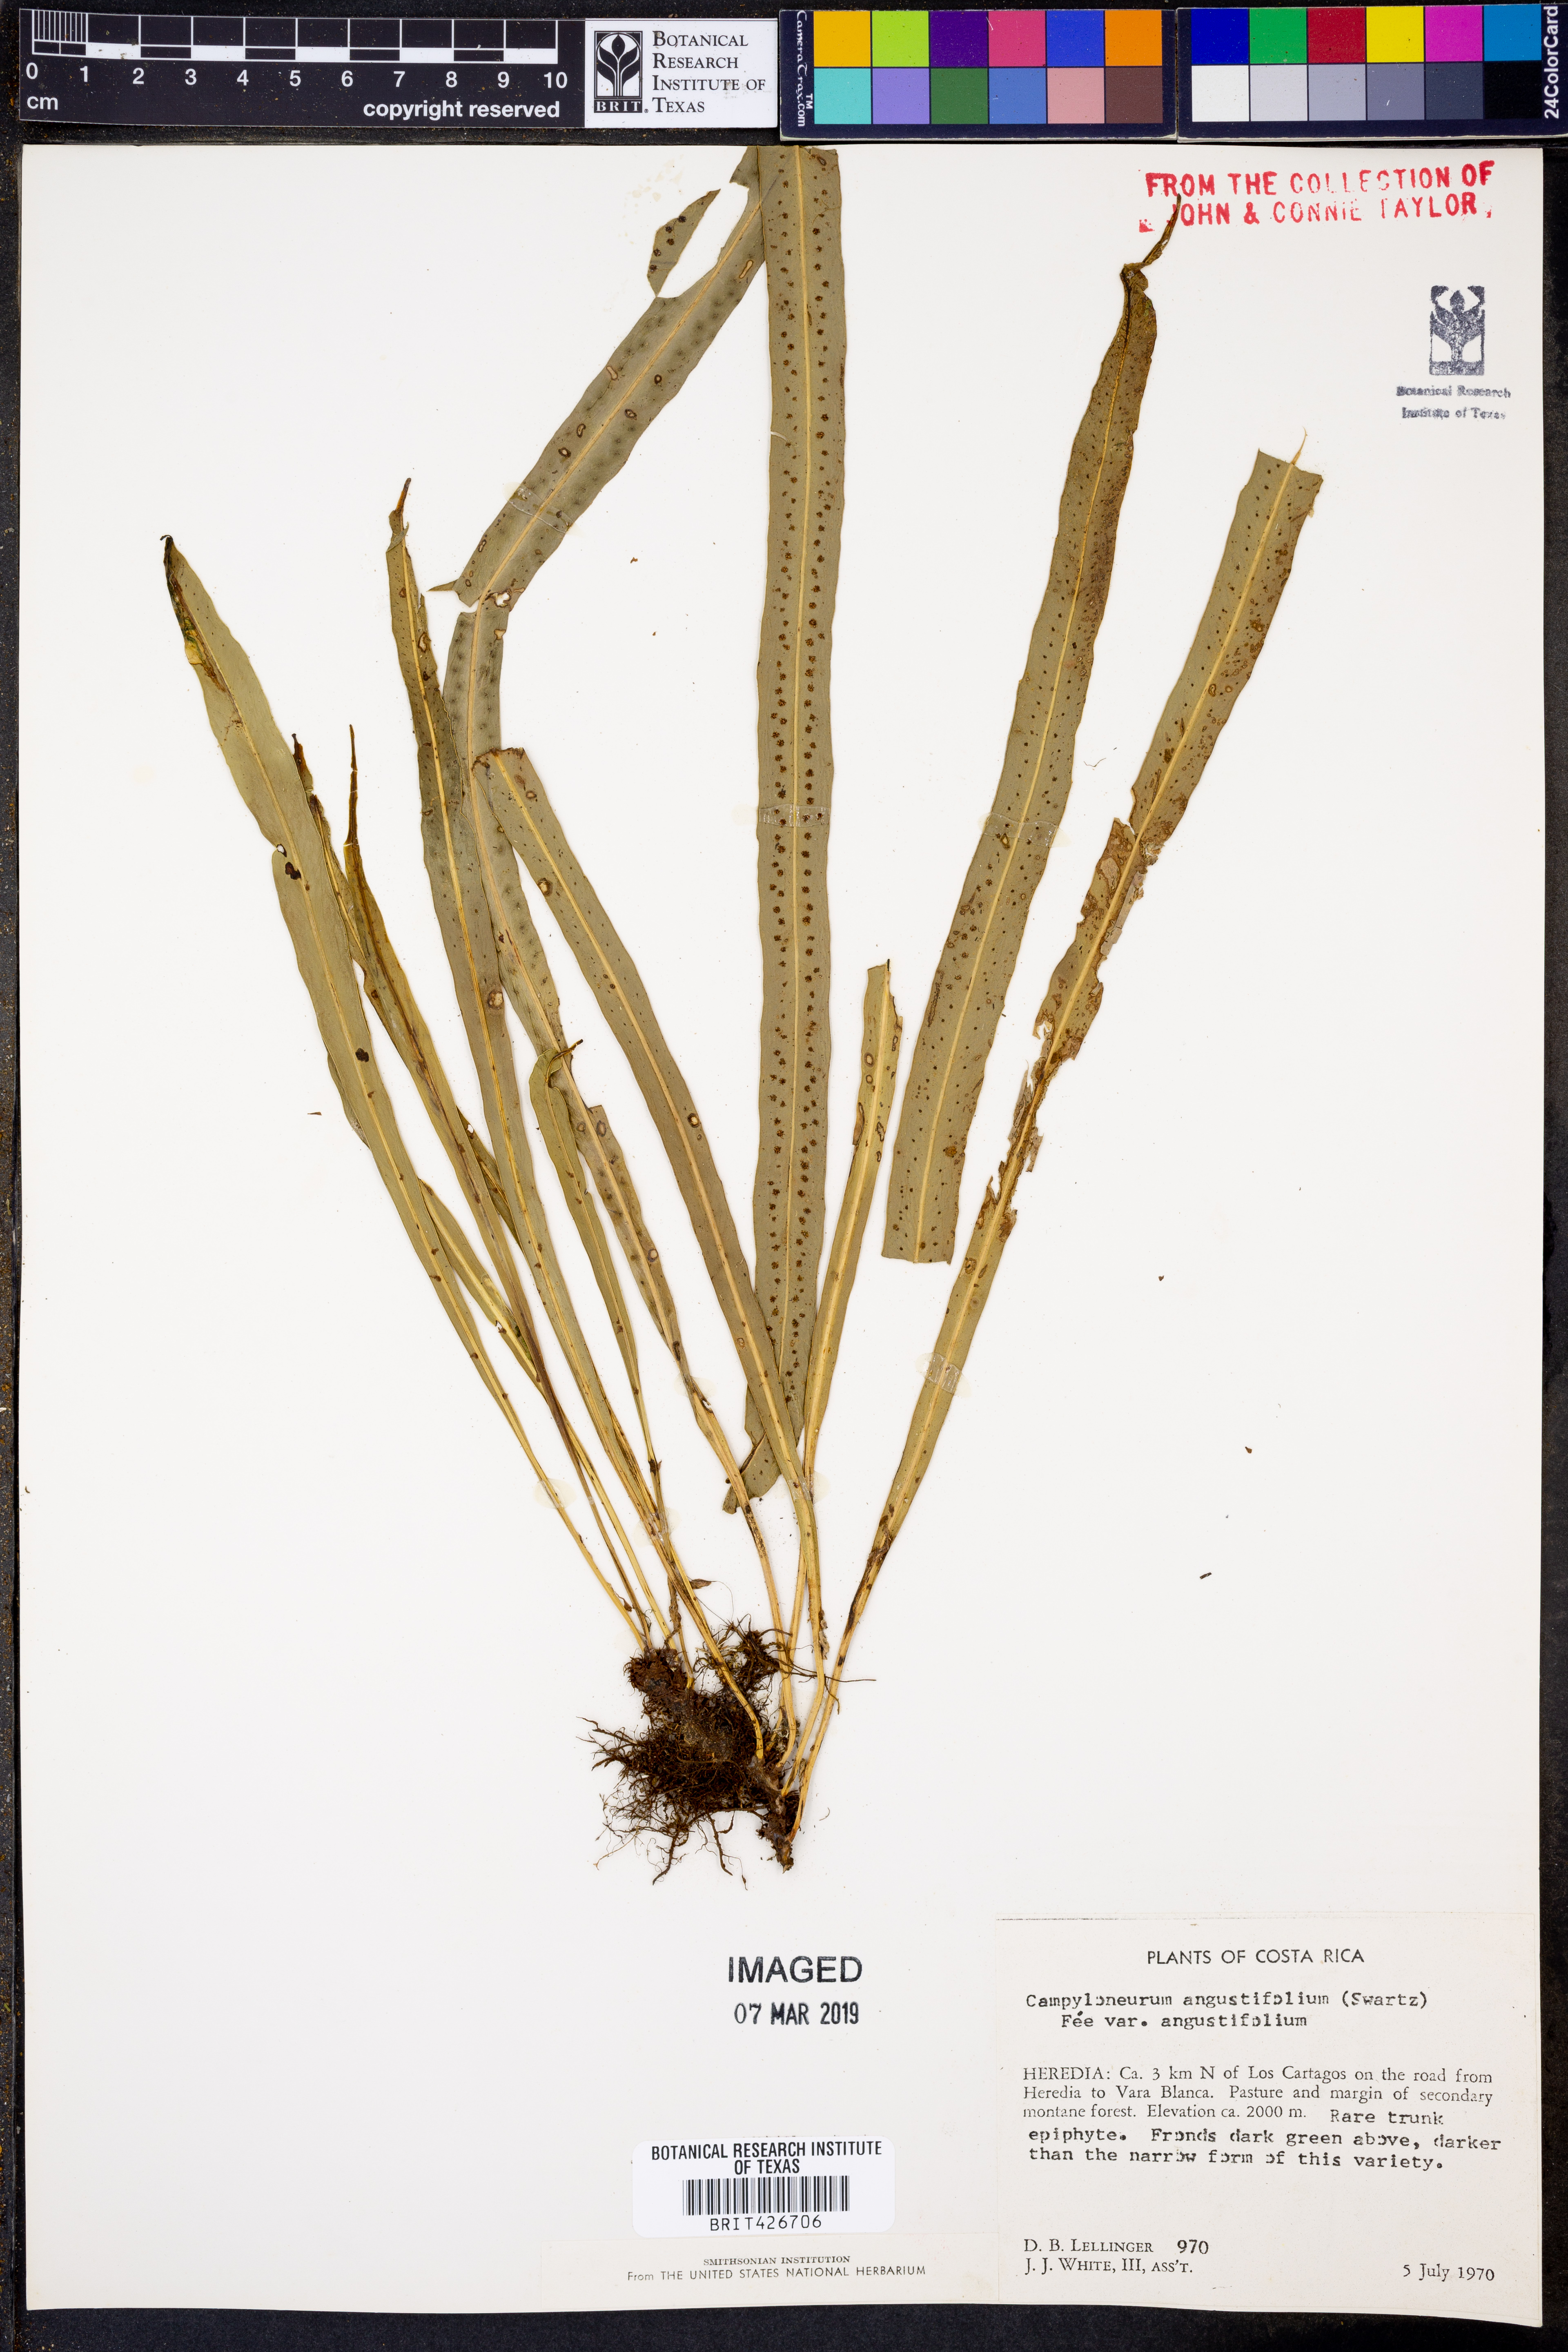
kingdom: Plantae
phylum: Tracheophyta
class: Polypodiopsida
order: Polypodiales
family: Polypodiaceae
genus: Campyloneurum
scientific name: Campyloneurum angustifolium
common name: Narrow-leaf strap fern
